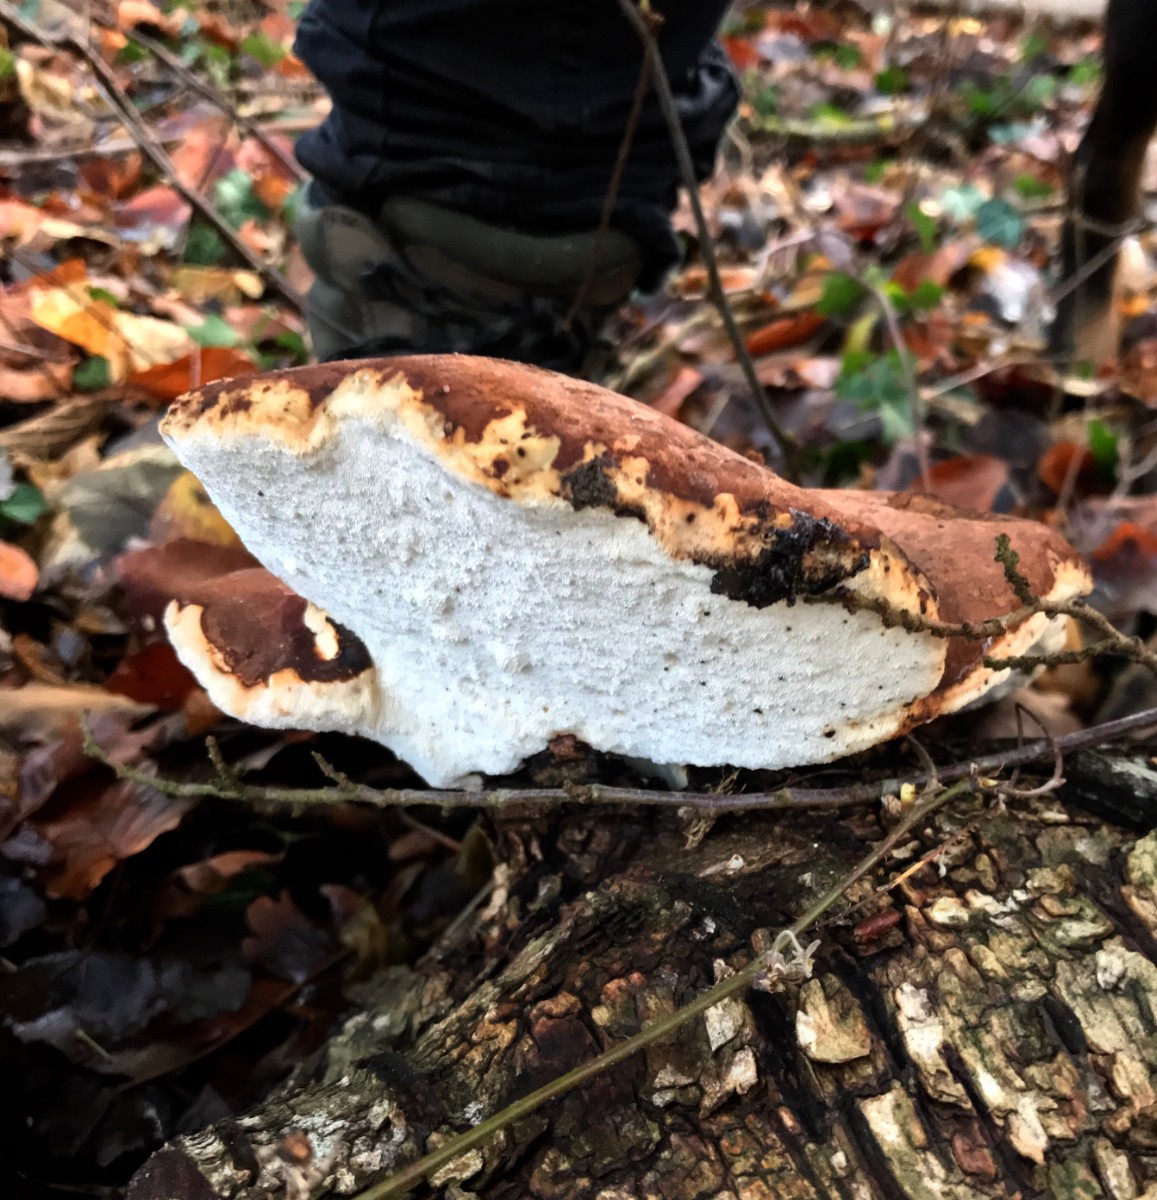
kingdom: Fungi
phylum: Basidiomycota
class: Agaricomycetes
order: Polyporales
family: Fomitopsidaceae
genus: Fomitopsis
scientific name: Fomitopsis betulina
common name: birkeporesvamp
